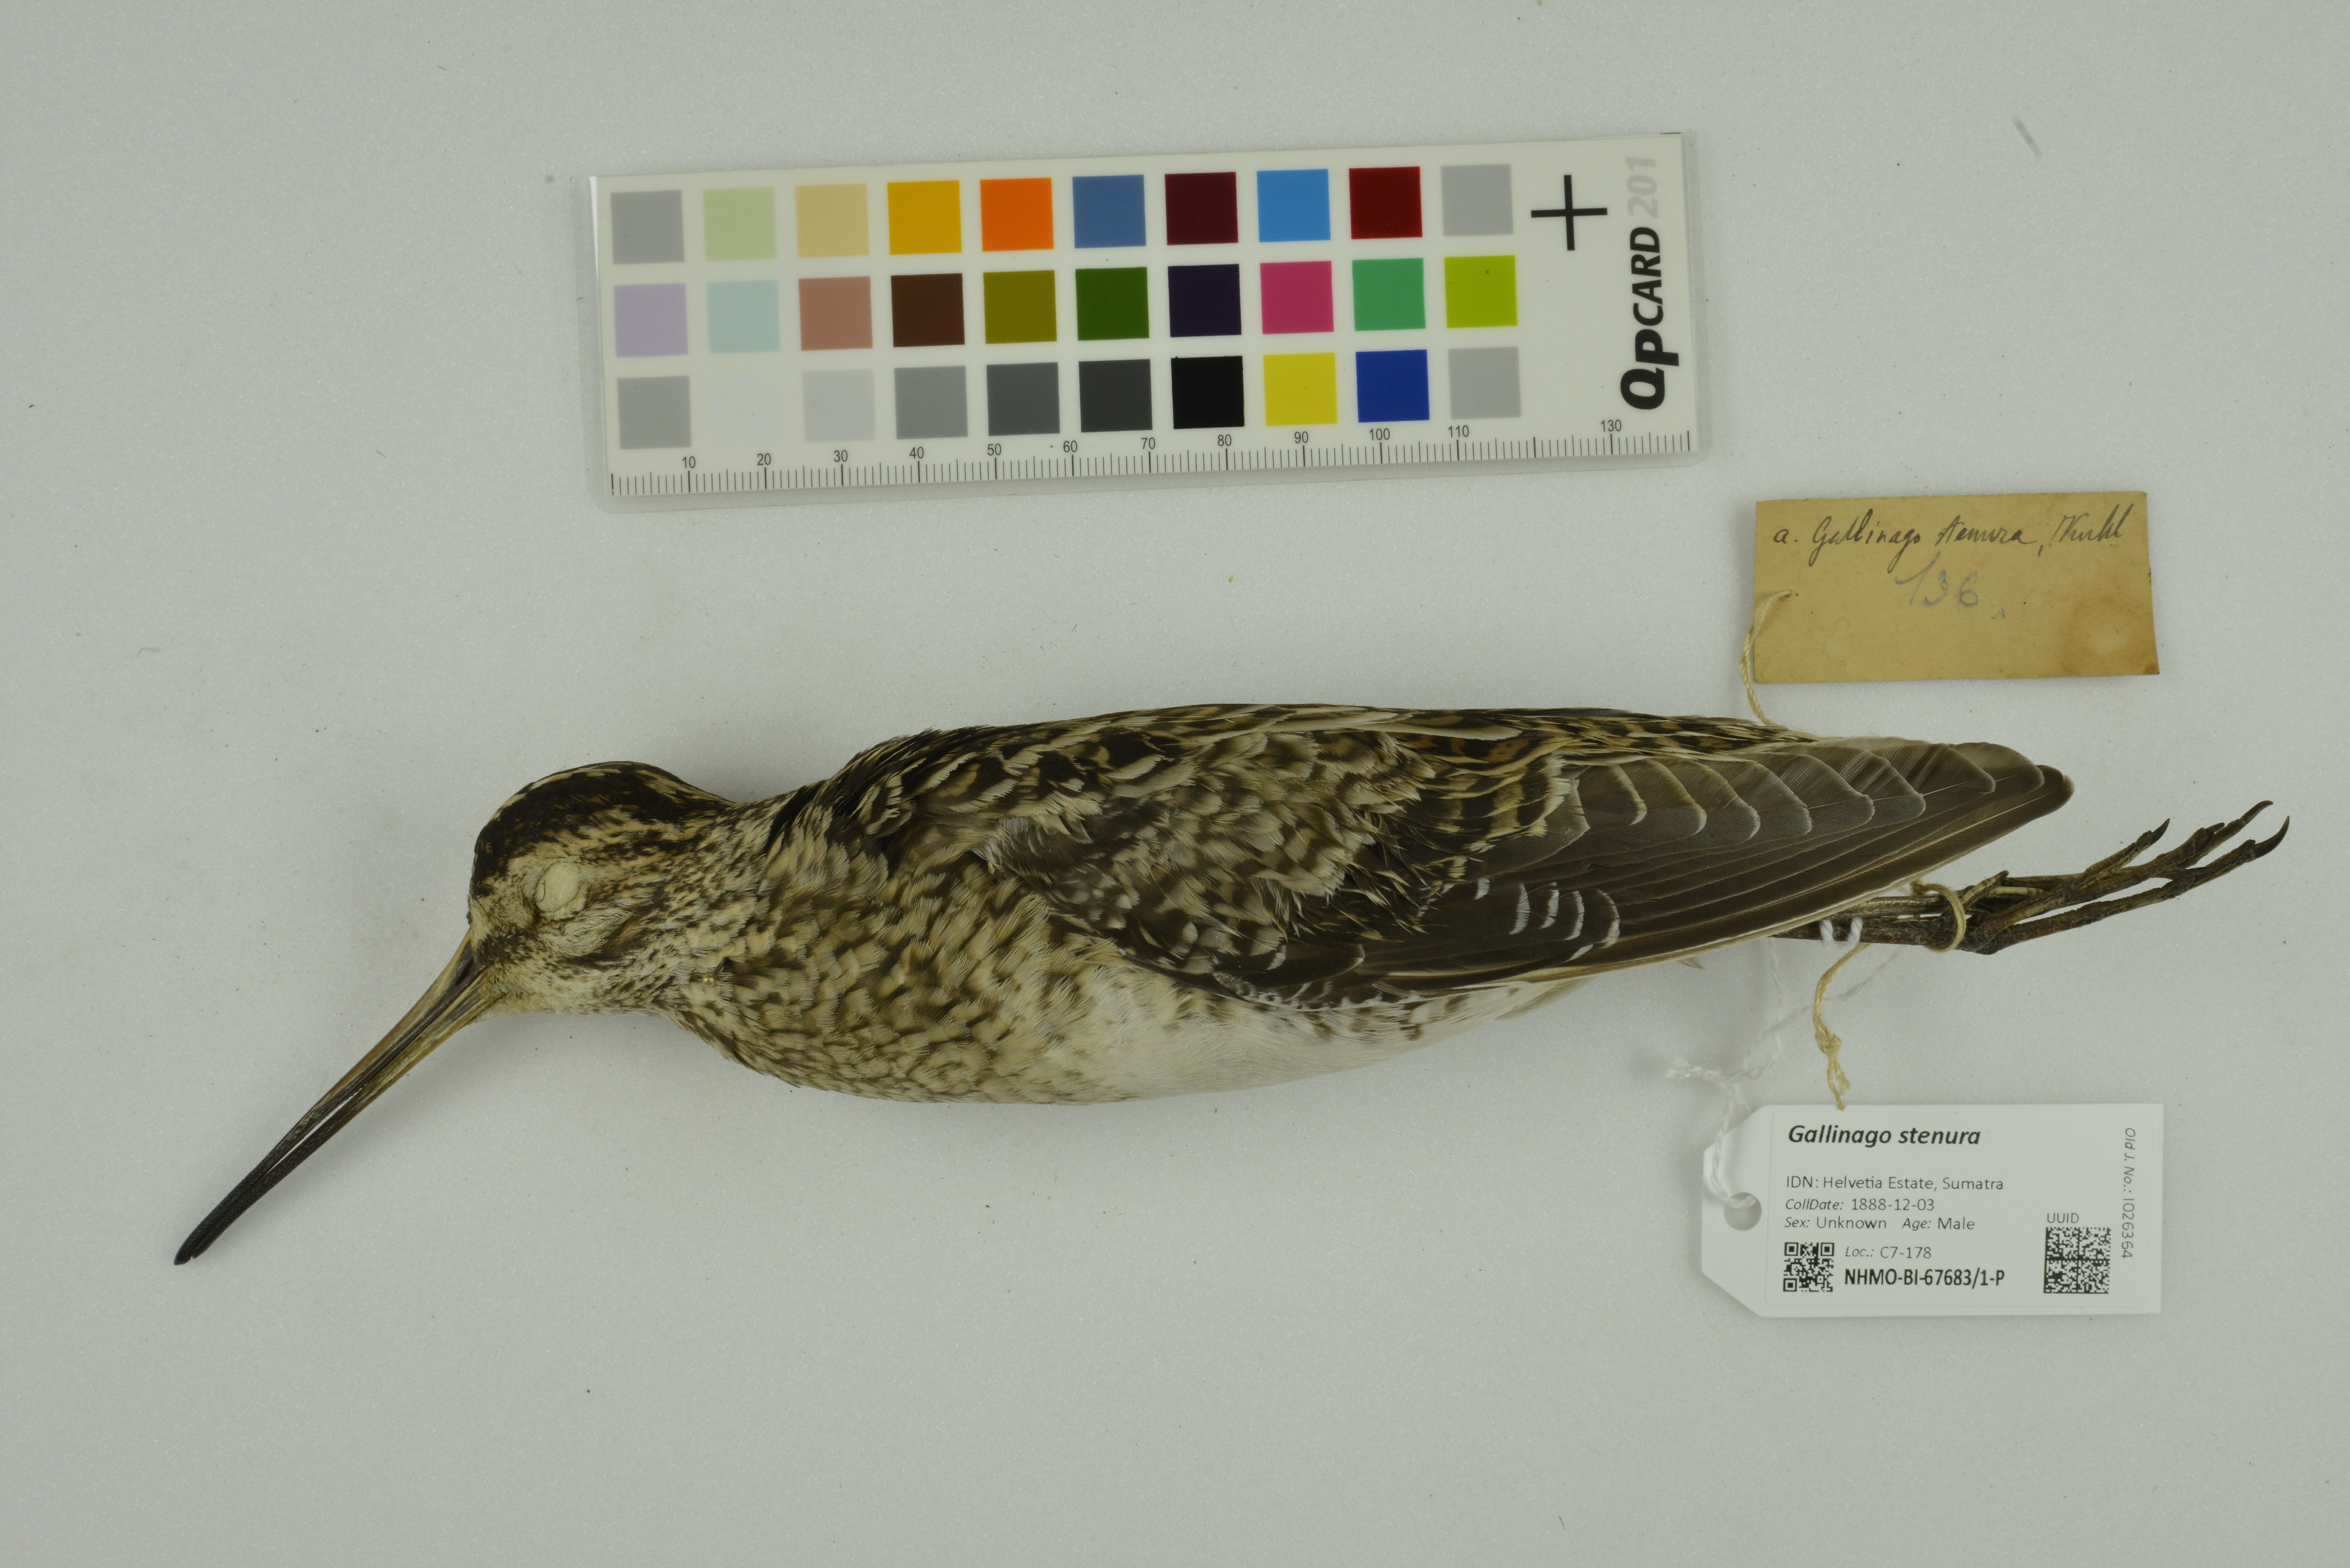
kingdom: Animalia
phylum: Chordata
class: Aves
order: Charadriiformes
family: Scolopacidae
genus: Gallinago
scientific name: Gallinago stenura
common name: Pin-tailed snipe
